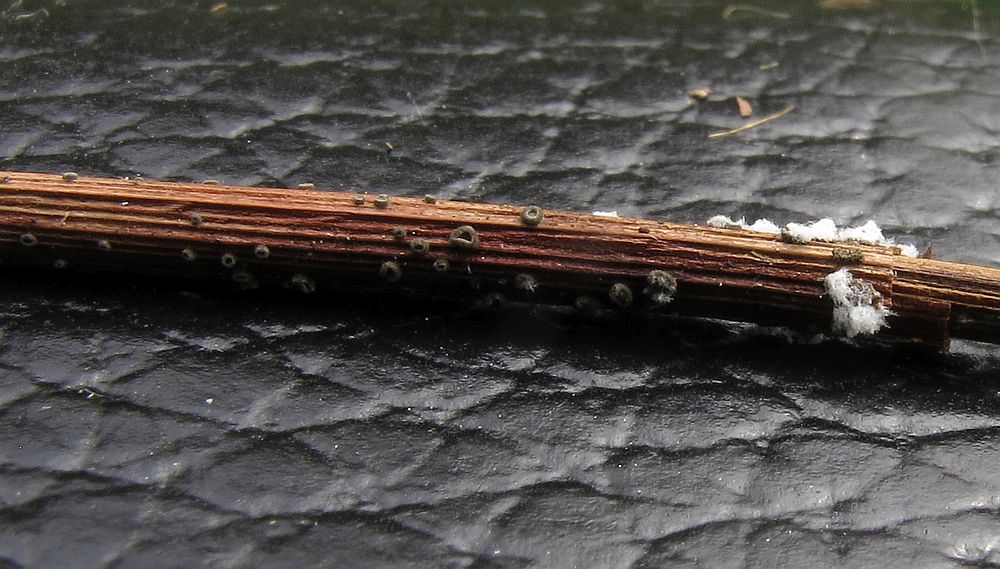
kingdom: Fungi
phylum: Ascomycota
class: Leotiomycetes
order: Helotiales
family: Mollisiaceae
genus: Mollisia
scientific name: Mollisia luctuosa
